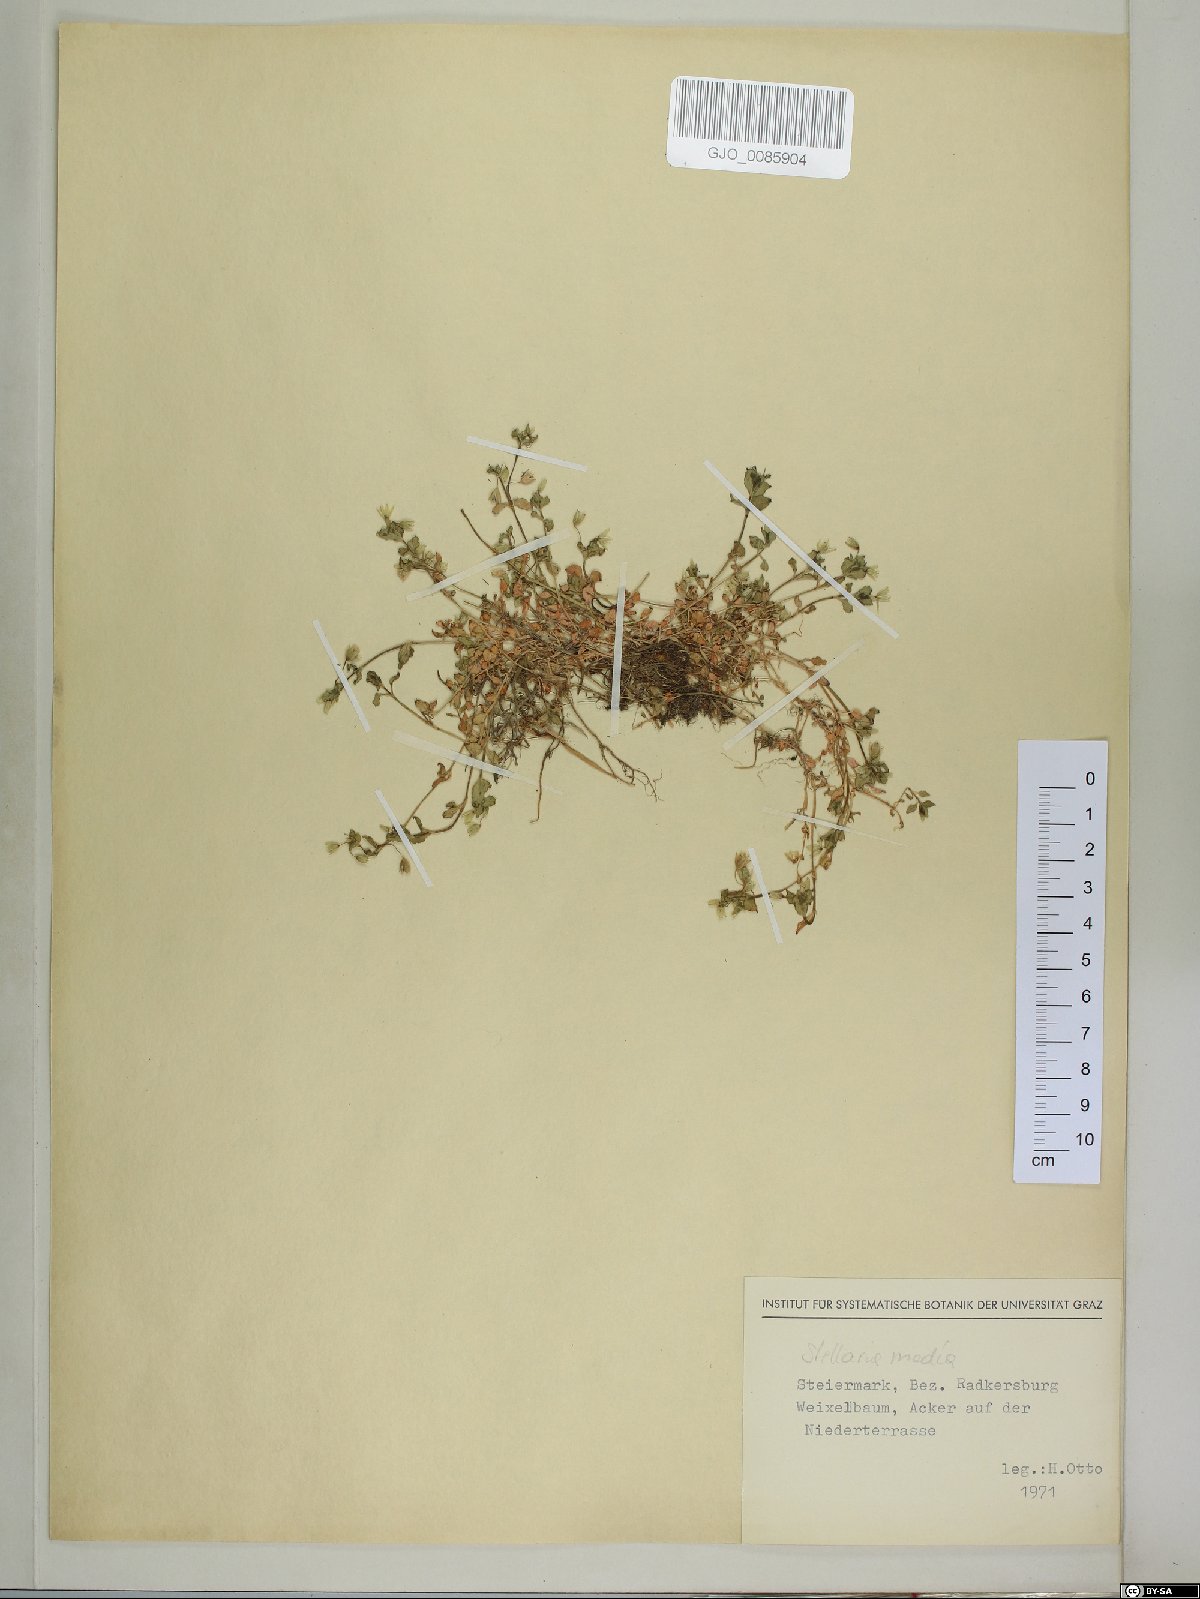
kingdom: Plantae
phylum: Tracheophyta
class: Magnoliopsida
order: Caryophyllales
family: Caryophyllaceae
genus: Stellaria
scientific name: Stellaria media
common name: Common chickweed
